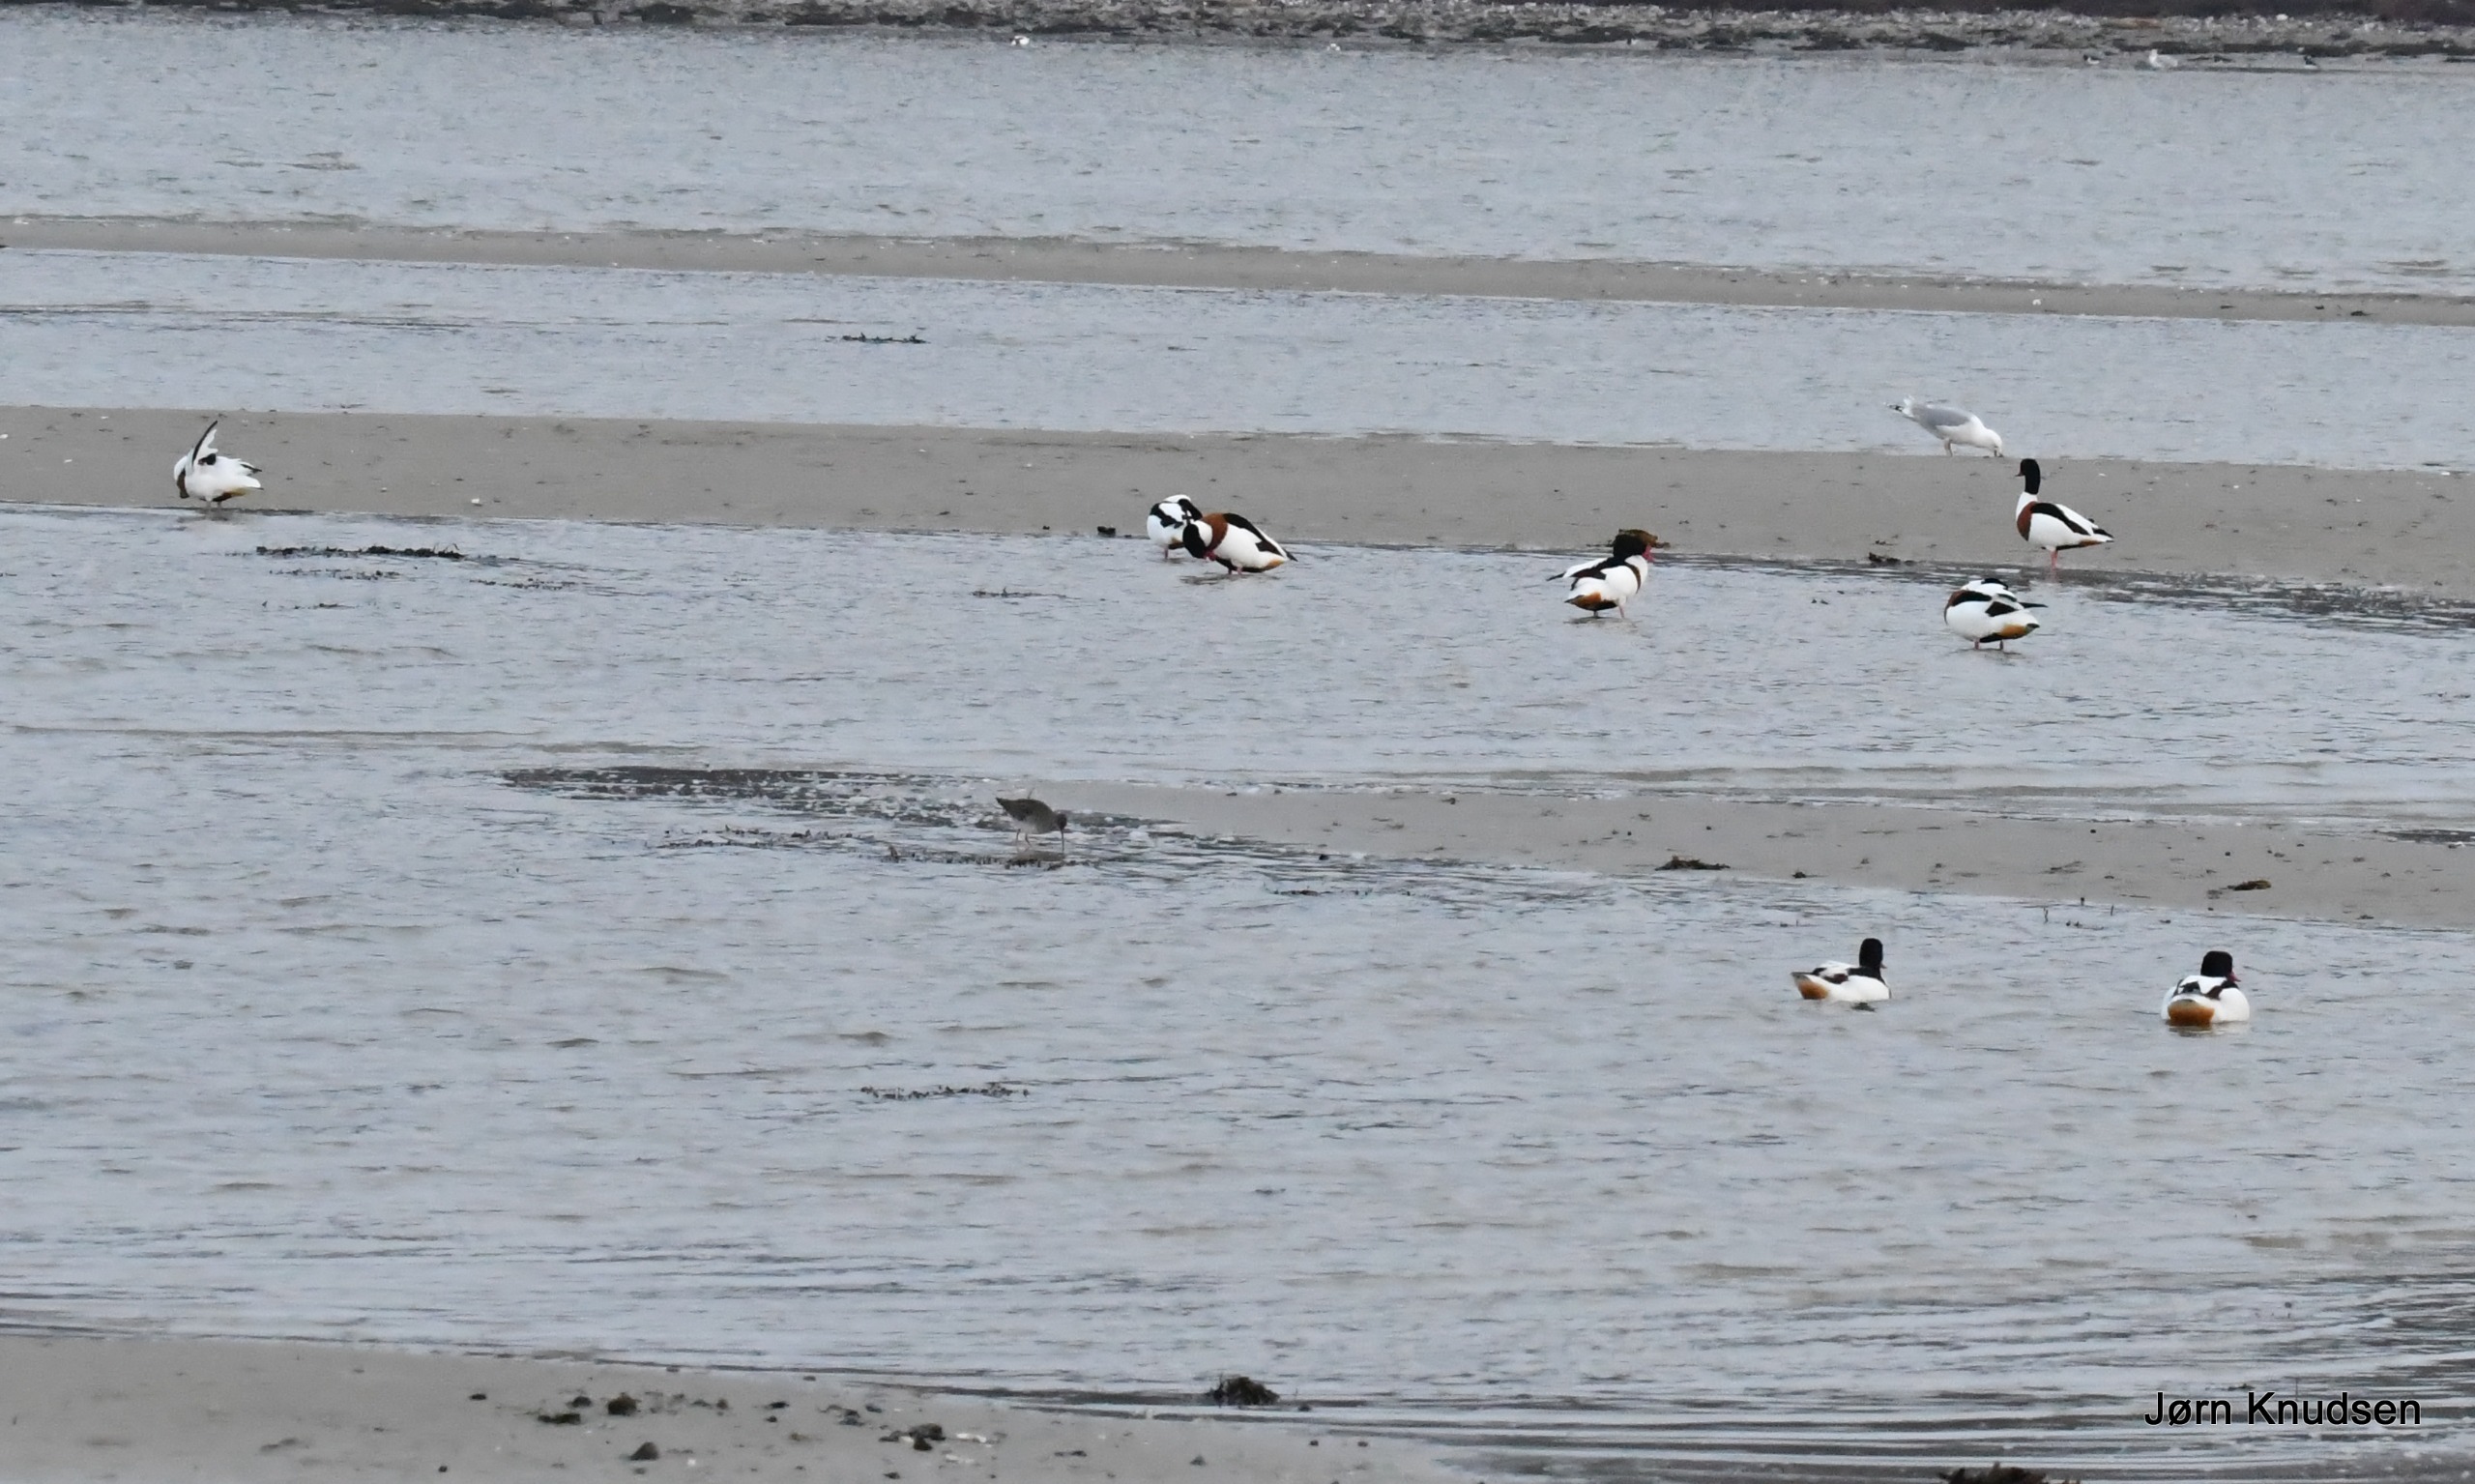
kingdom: Animalia
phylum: Chordata
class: Aves
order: Anseriformes
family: Anatidae
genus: Tadorna
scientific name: Tadorna tadorna
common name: Gravand
